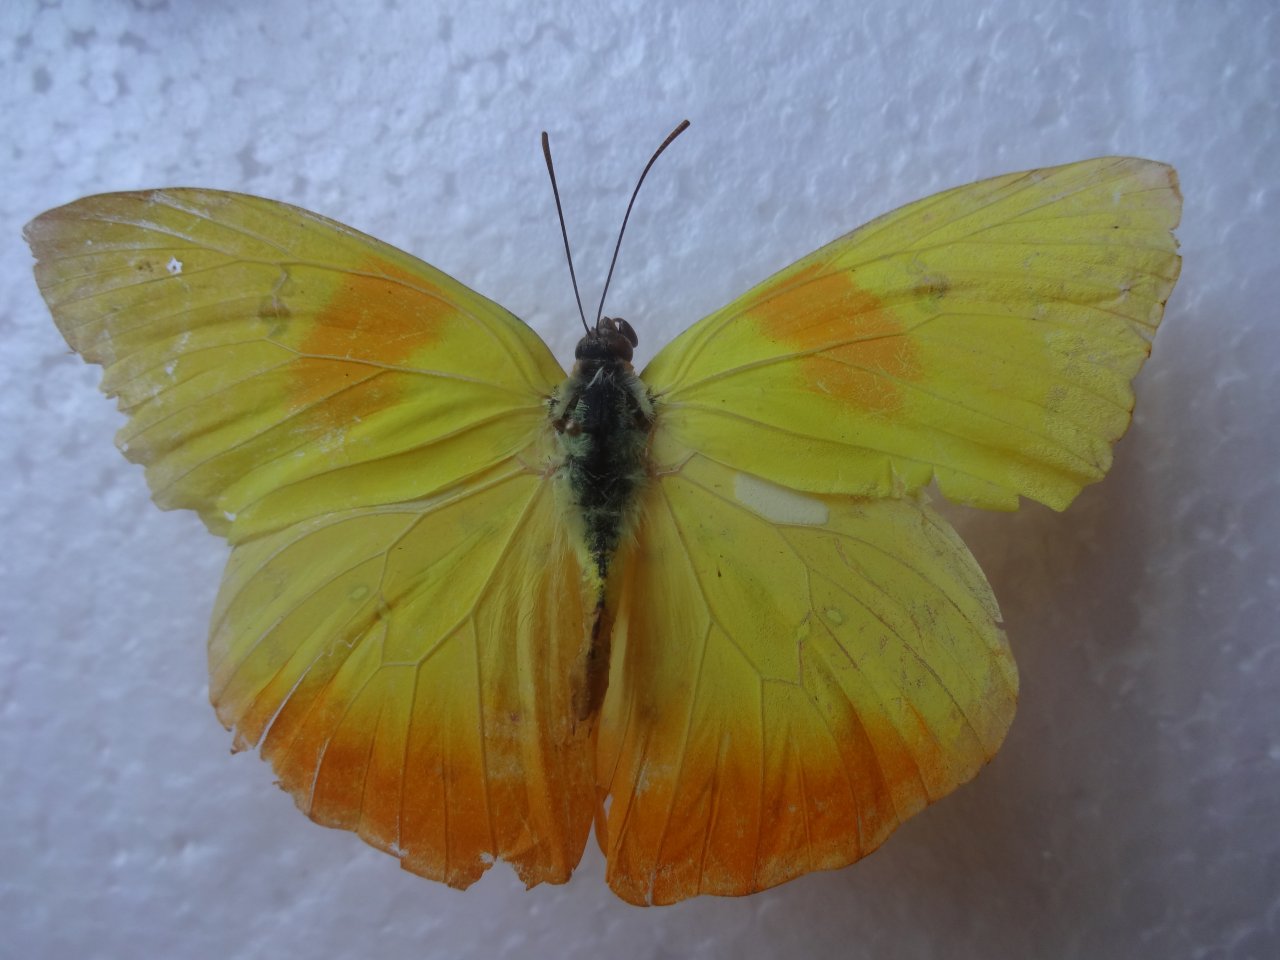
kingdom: Animalia
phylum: Arthropoda
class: Insecta
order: Lepidoptera
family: Pieridae
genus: Phoebis
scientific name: Phoebis philea
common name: Orange-barred Sulphur
